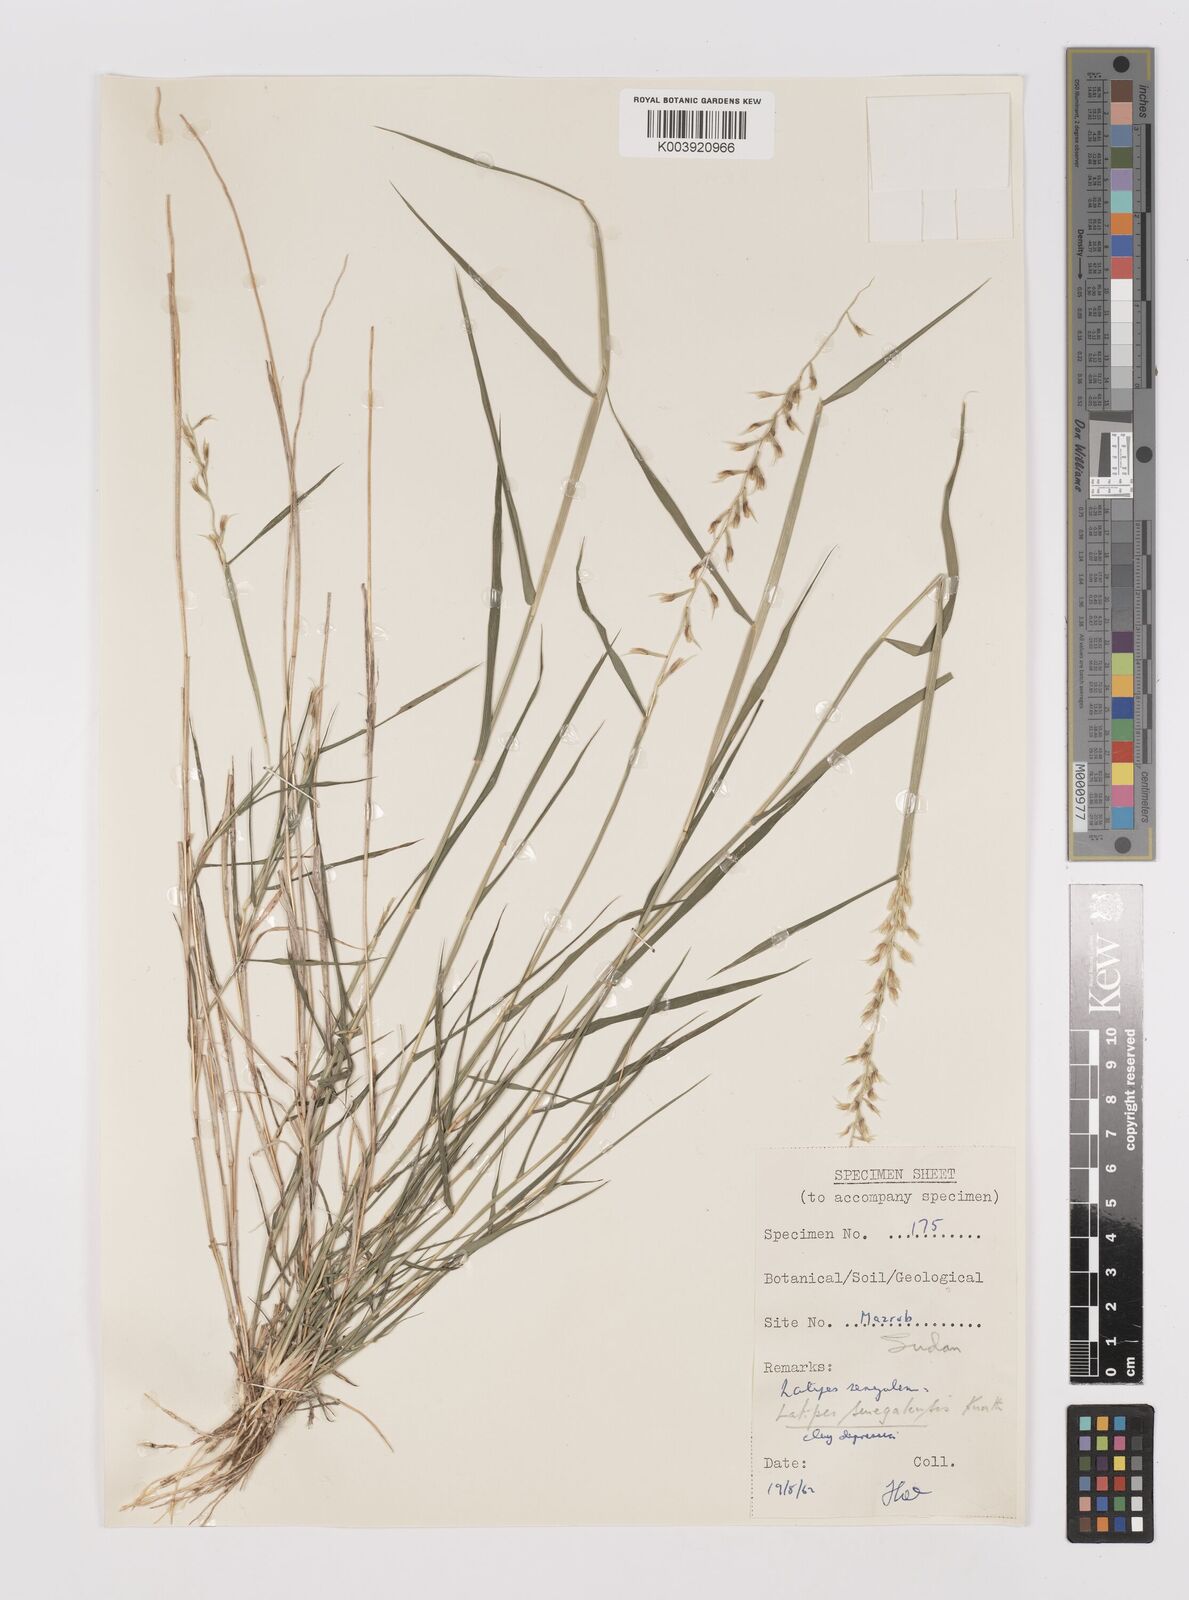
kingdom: Plantae
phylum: Tracheophyta
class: Liliopsida
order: Poales
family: Poaceae
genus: Leptothrium
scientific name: Leptothrium senegalense
